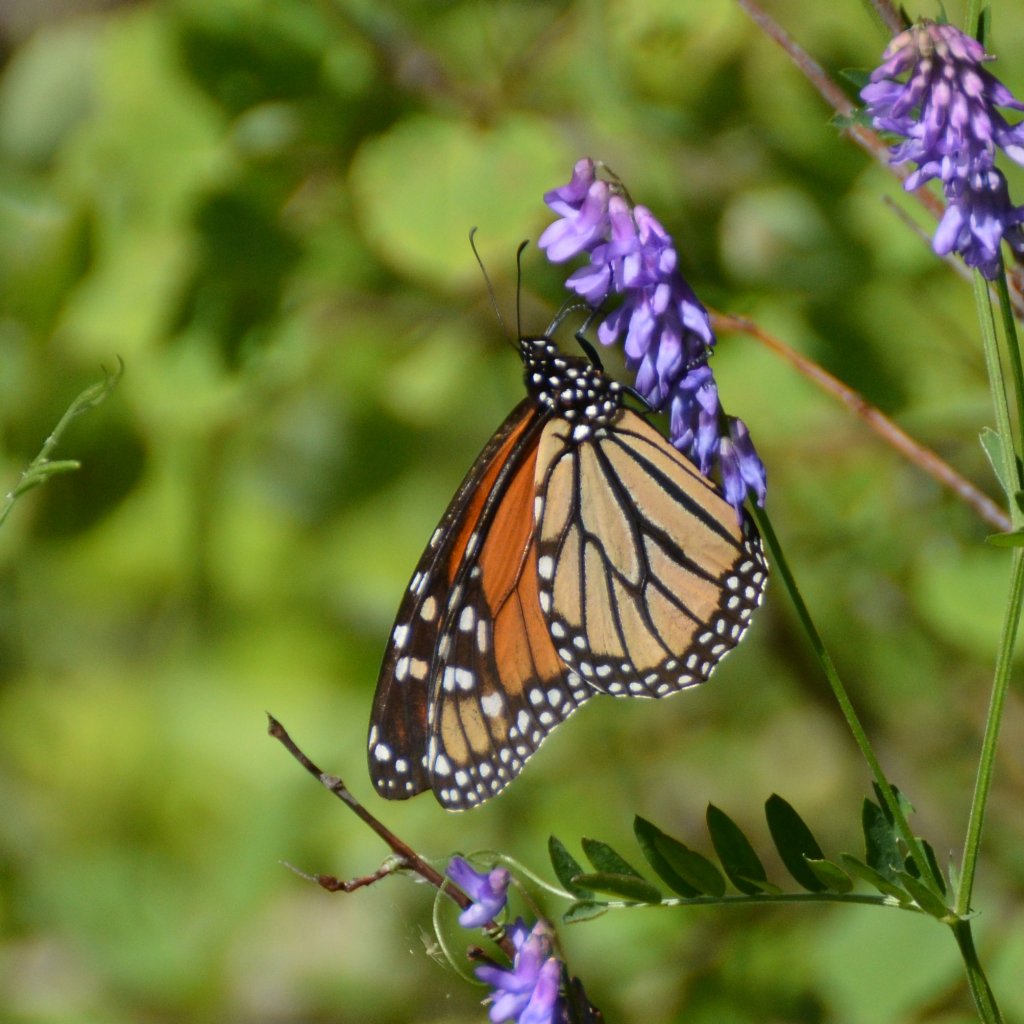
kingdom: Animalia
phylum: Arthropoda
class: Insecta
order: Lepidoptera
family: Nymphalidae
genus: Danaus
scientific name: Danaus plexippus
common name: Monarch
